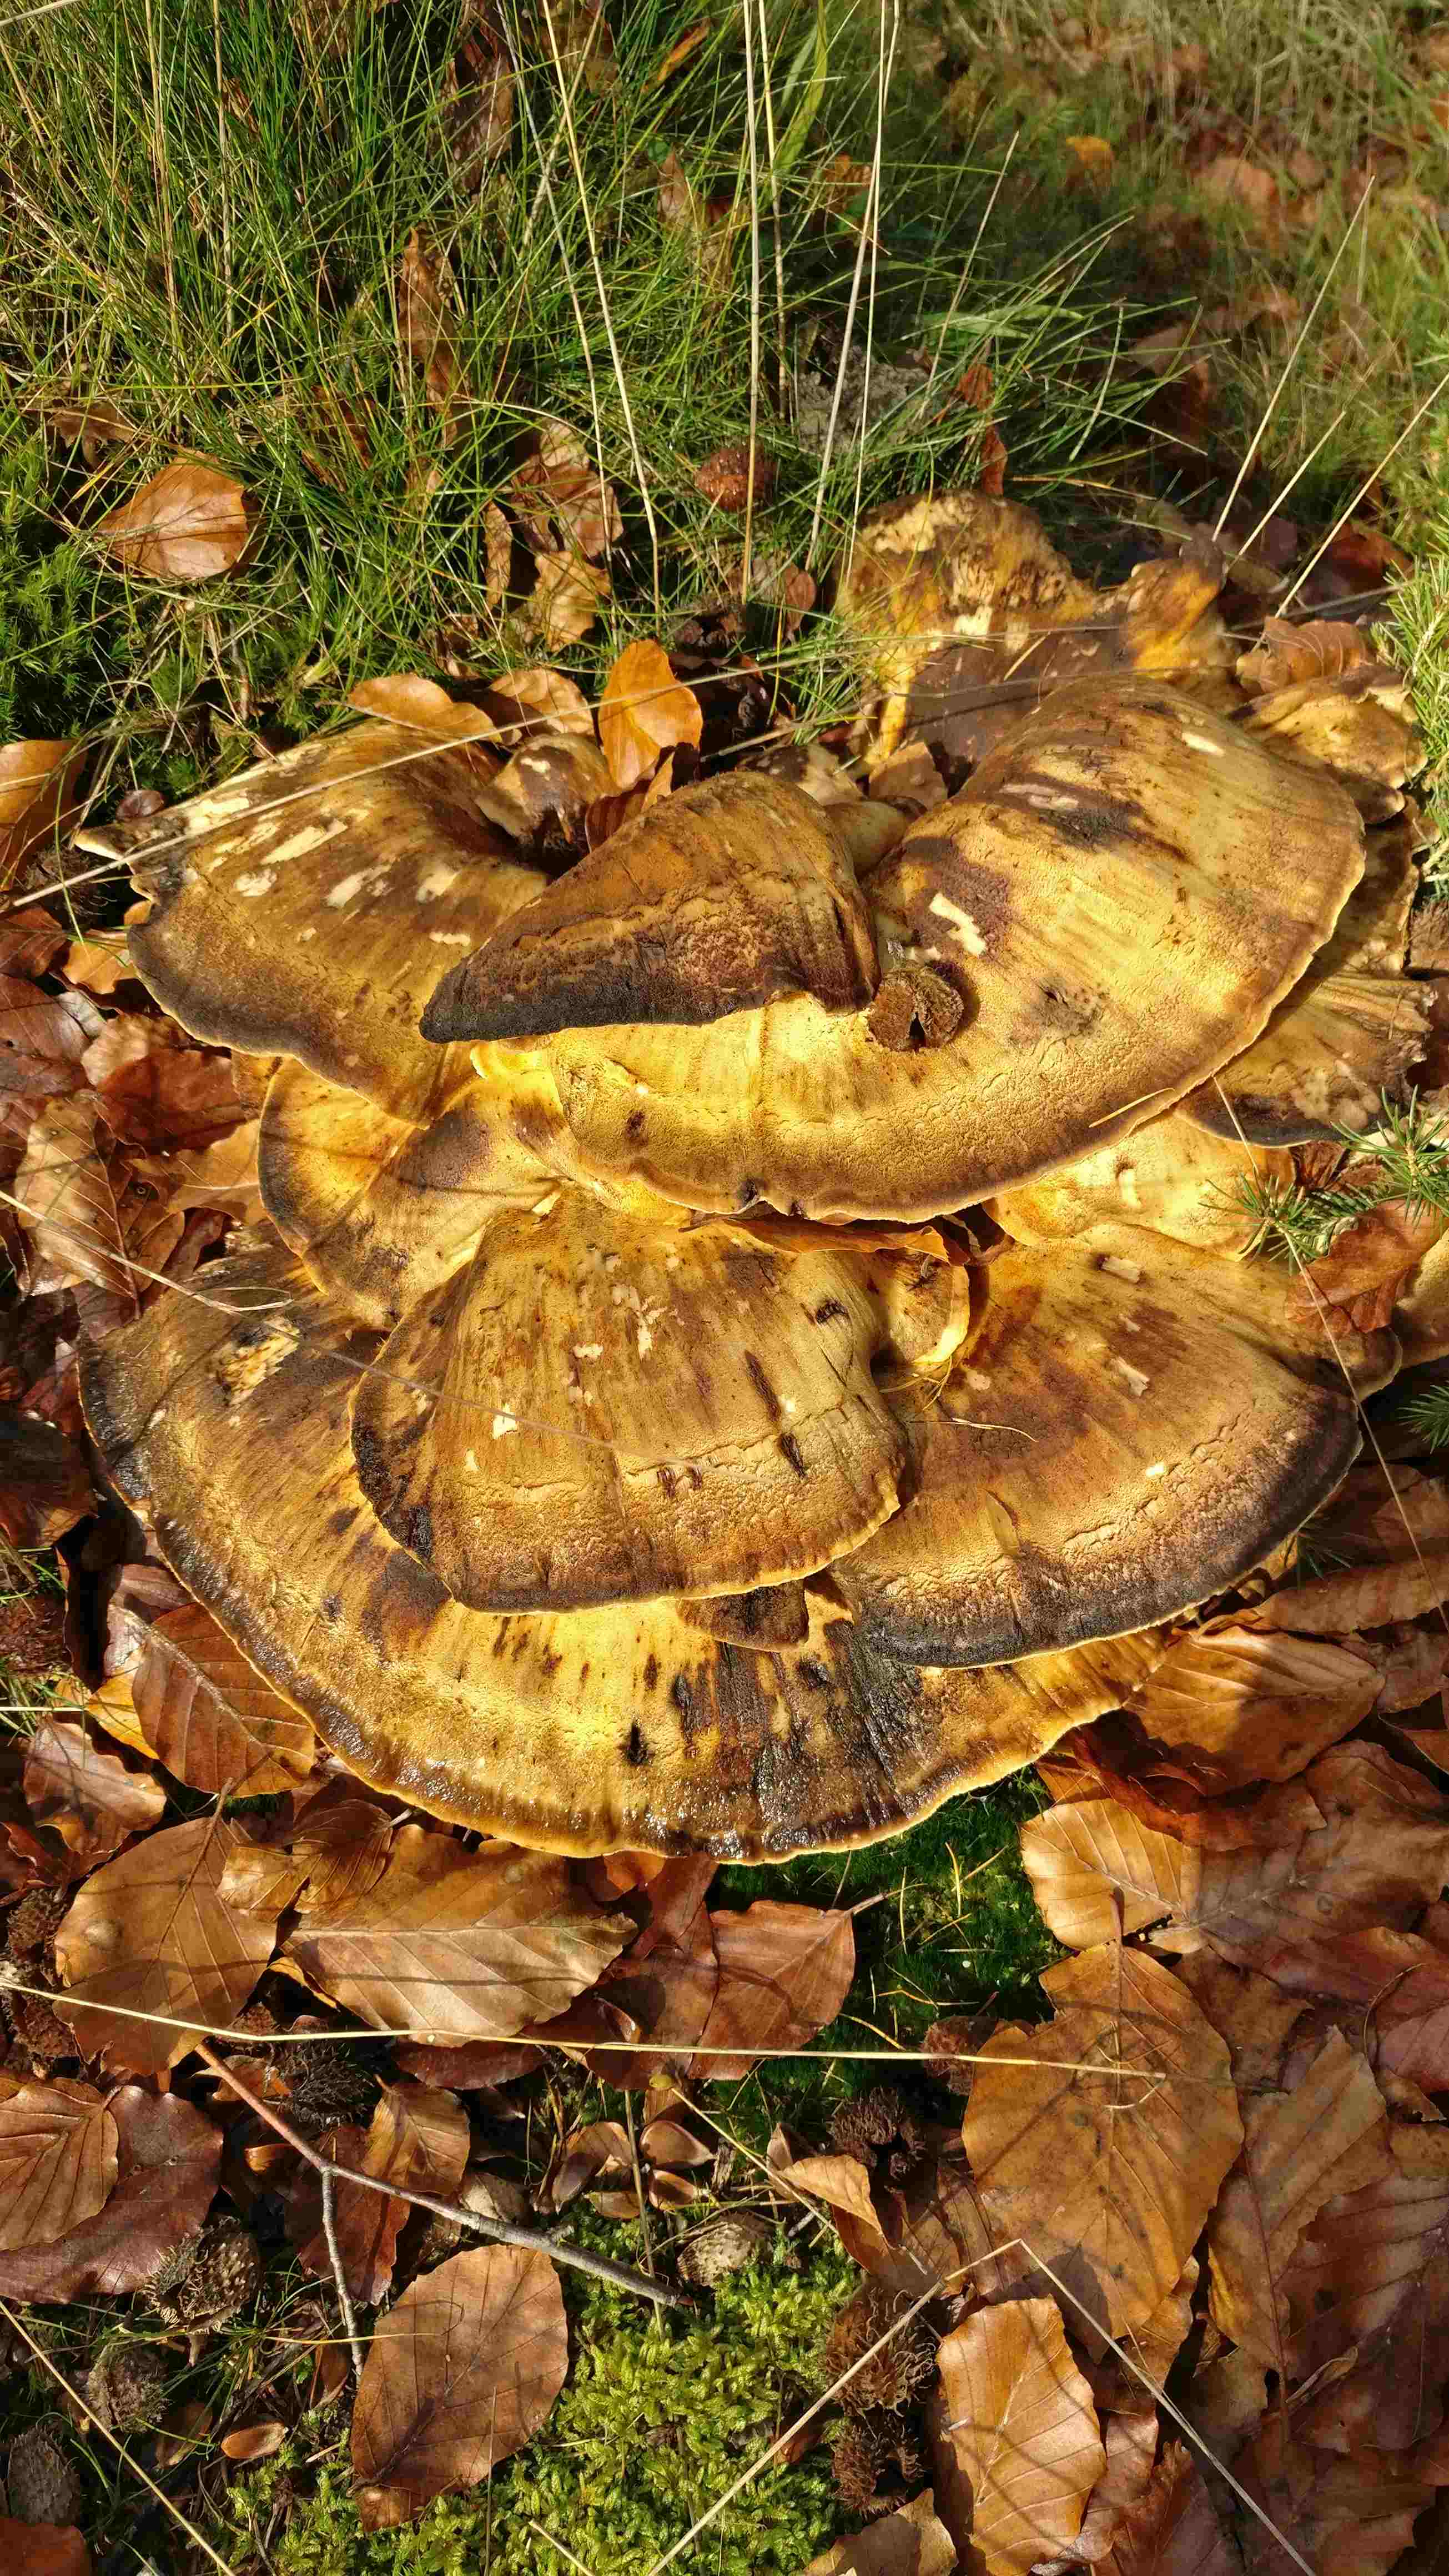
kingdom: Fungi
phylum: Basidiomycota
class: Agaricomycetes
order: Polyporales
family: Meripilaceae
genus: Meripilus
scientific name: Meripilus giganteus
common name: kæmpeporesvamp
